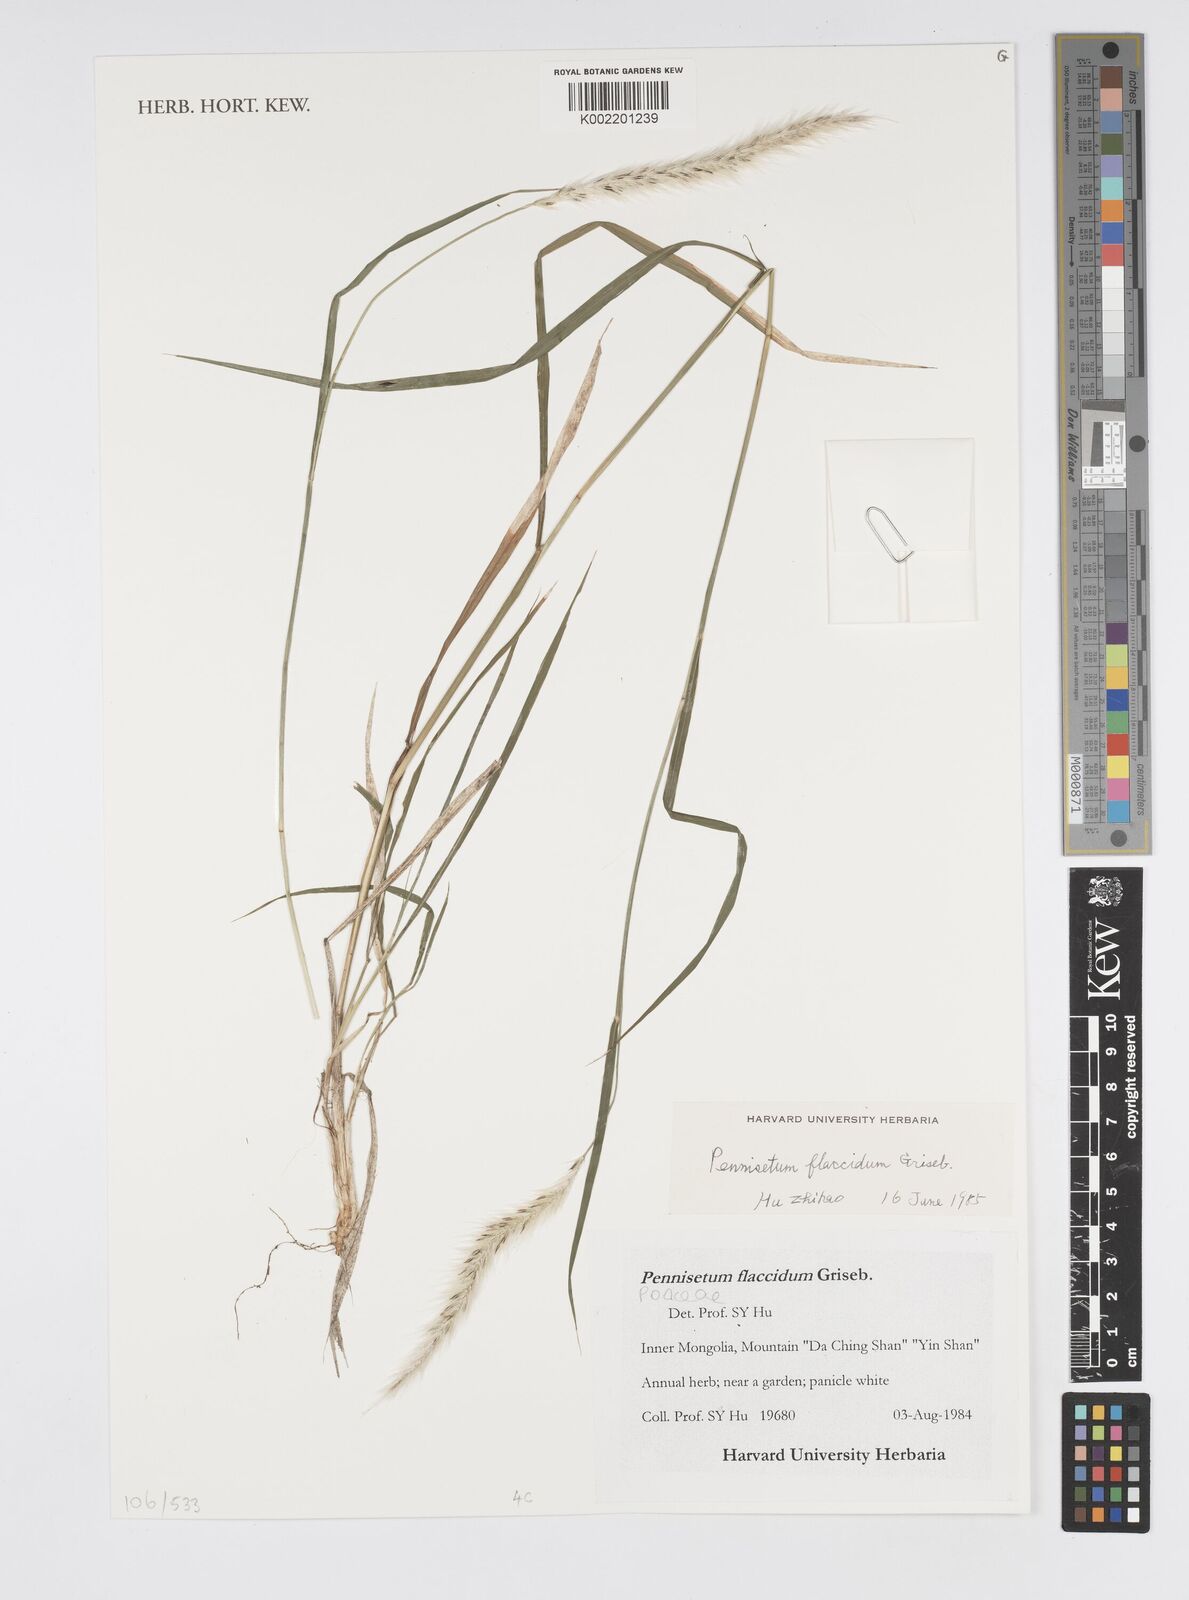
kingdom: Plantae
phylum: Tracheophyta
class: Liliopsida
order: Poales
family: Poaceae
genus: Cenchrus
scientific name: Cenchrus flaccidus
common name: Flaccid grass
